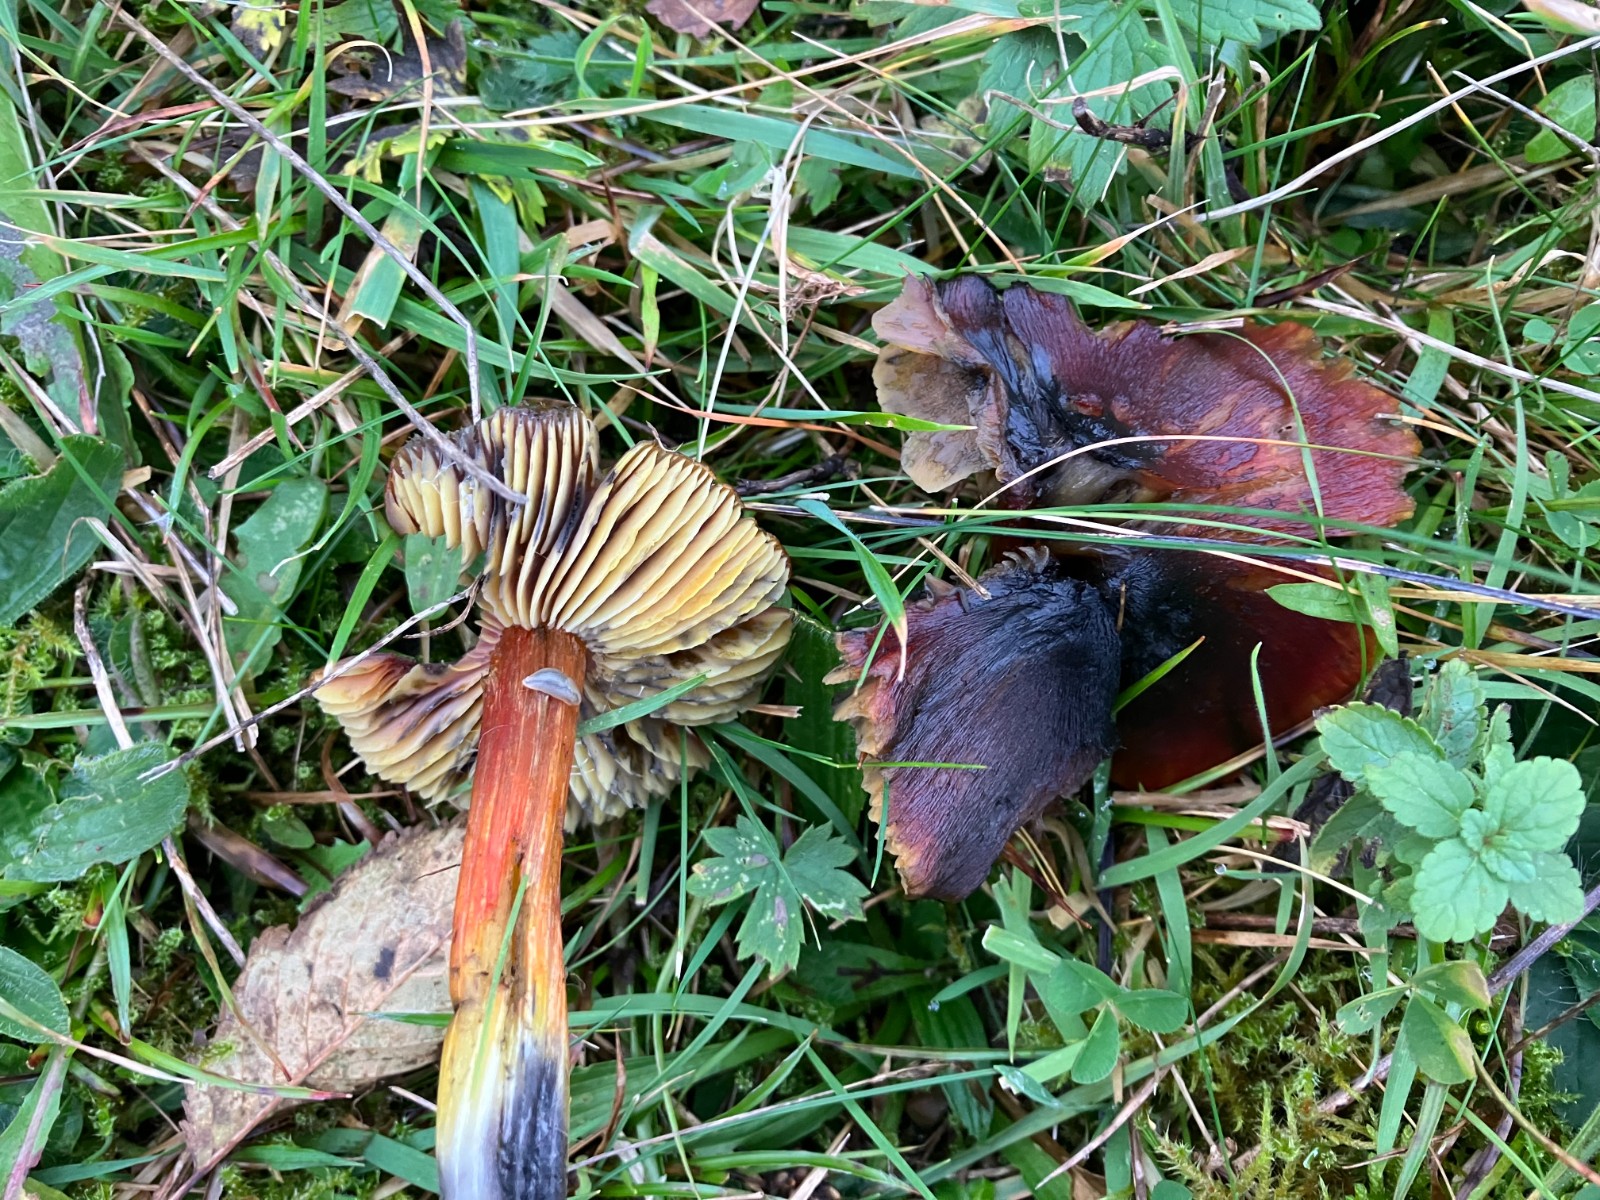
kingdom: Fungi
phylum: Basidiomycota
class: Agaricomycetes
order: Agaricales
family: Hygrophoraceae
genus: Hygrocybe
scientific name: Hygrocybe conica
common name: kegle-vokshat
